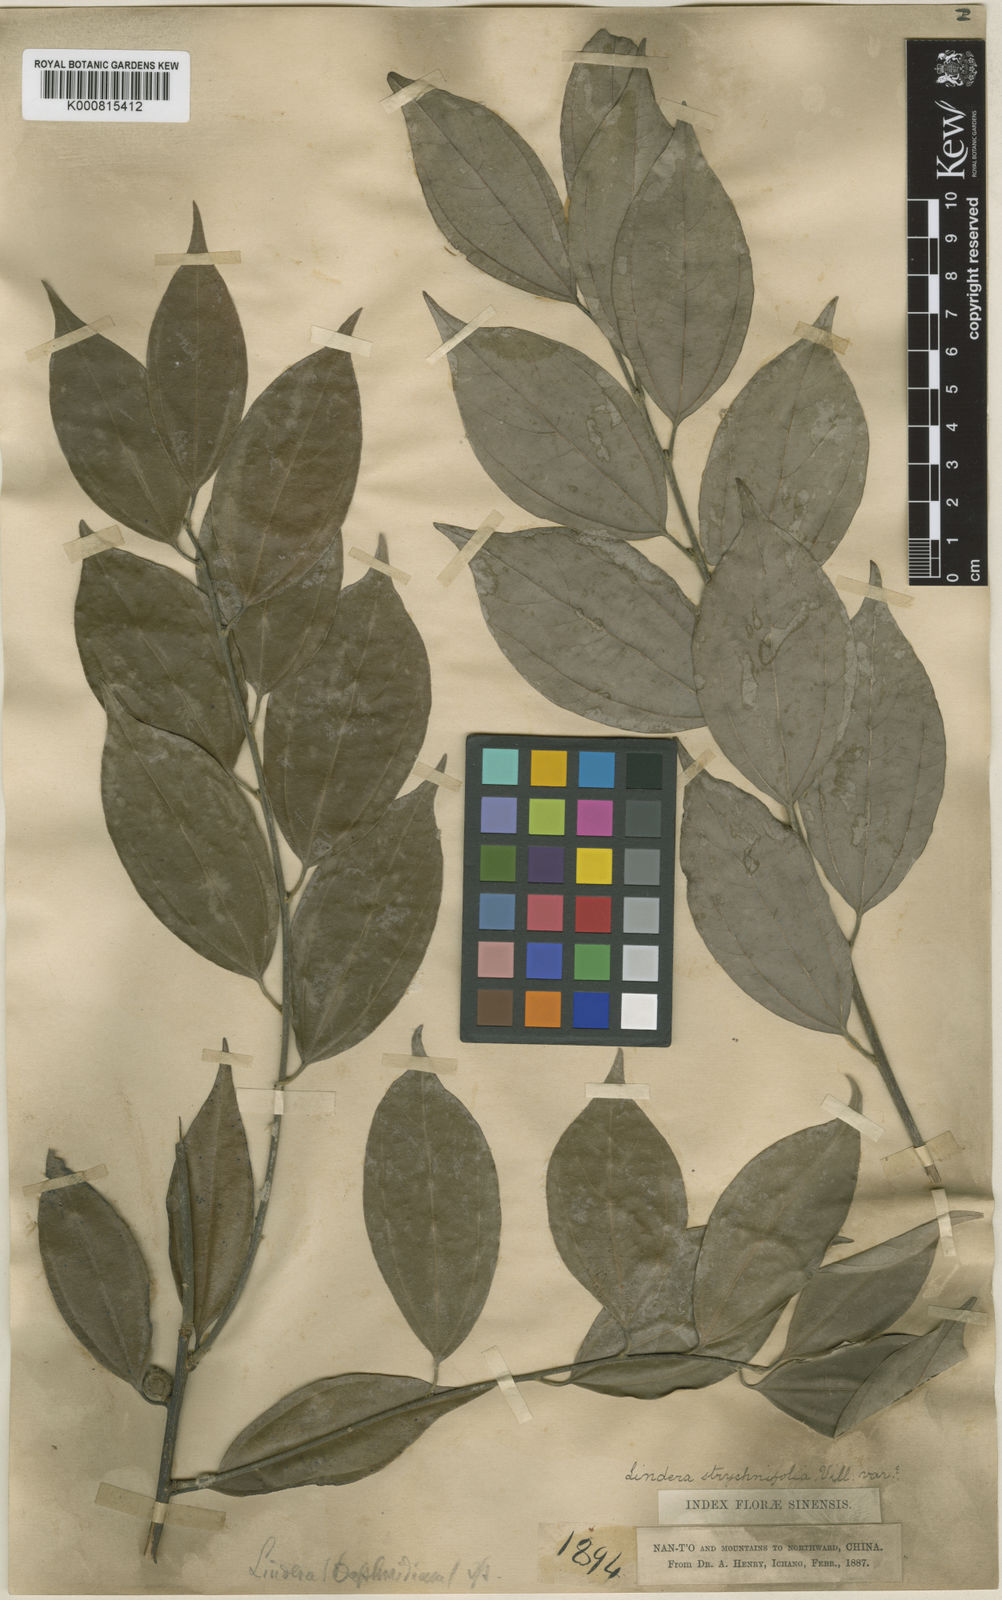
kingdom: Plantae
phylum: Tracheophyta
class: Magnoliopsida
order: Laurales
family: Lauraceae
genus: Lindera
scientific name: Lindera aggregata
